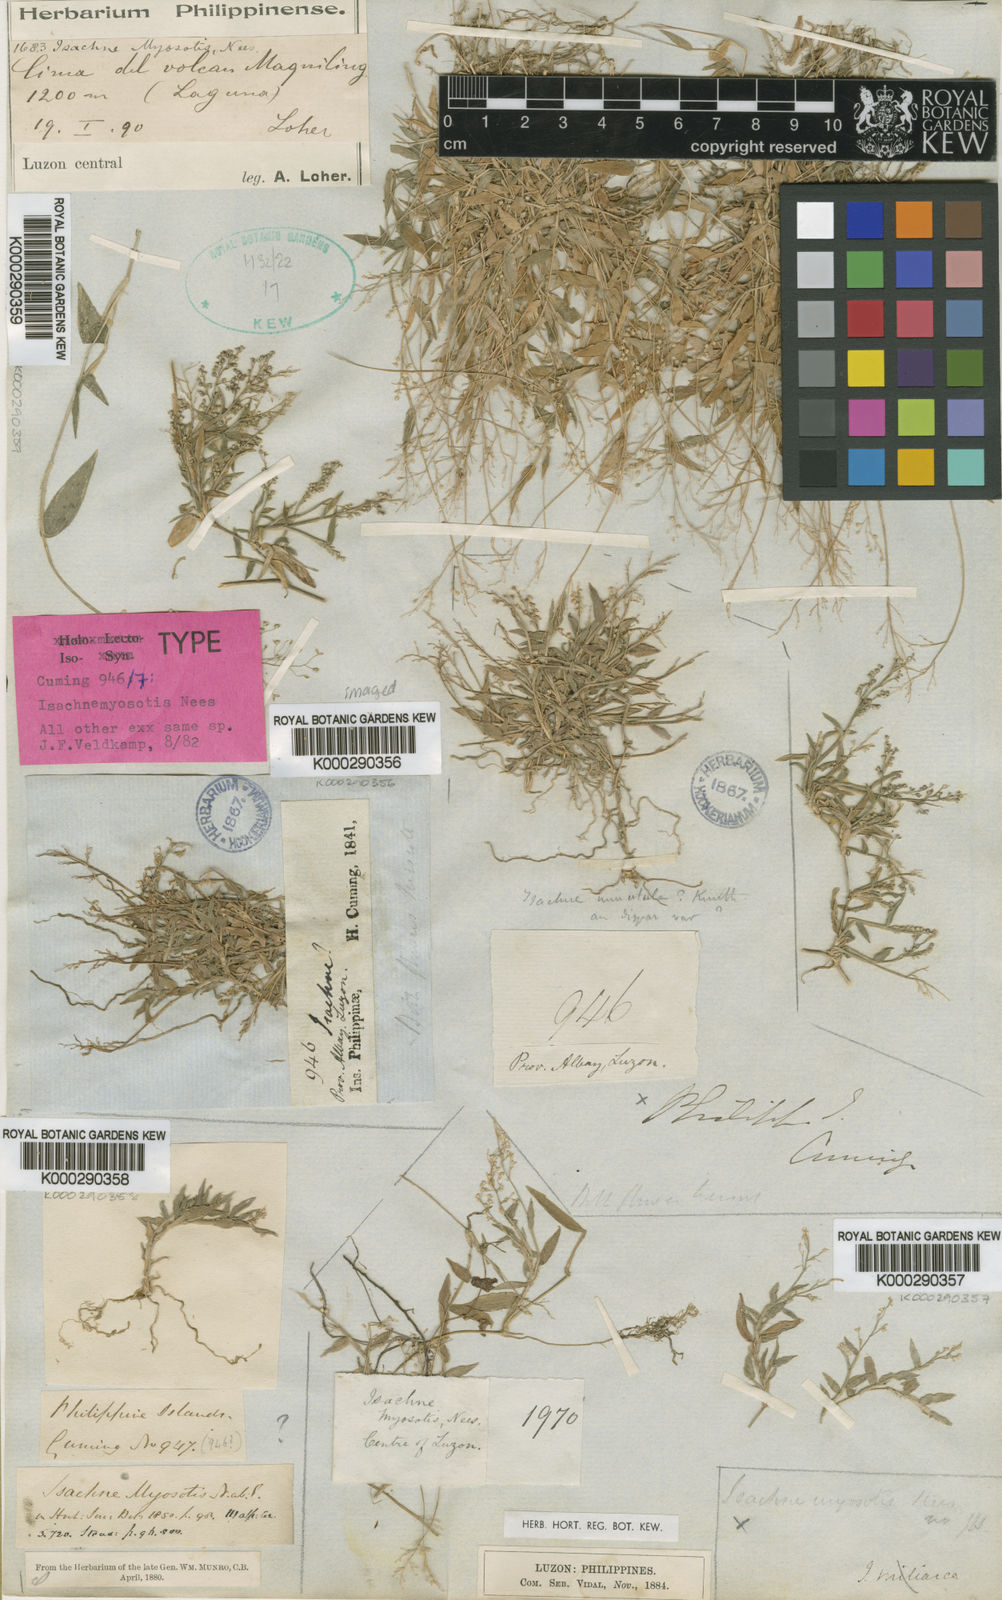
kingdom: Plantae
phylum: Tracheophyta
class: Liliopsida
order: Poales
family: Poaceae
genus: Isachne
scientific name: Isachne myosotis
